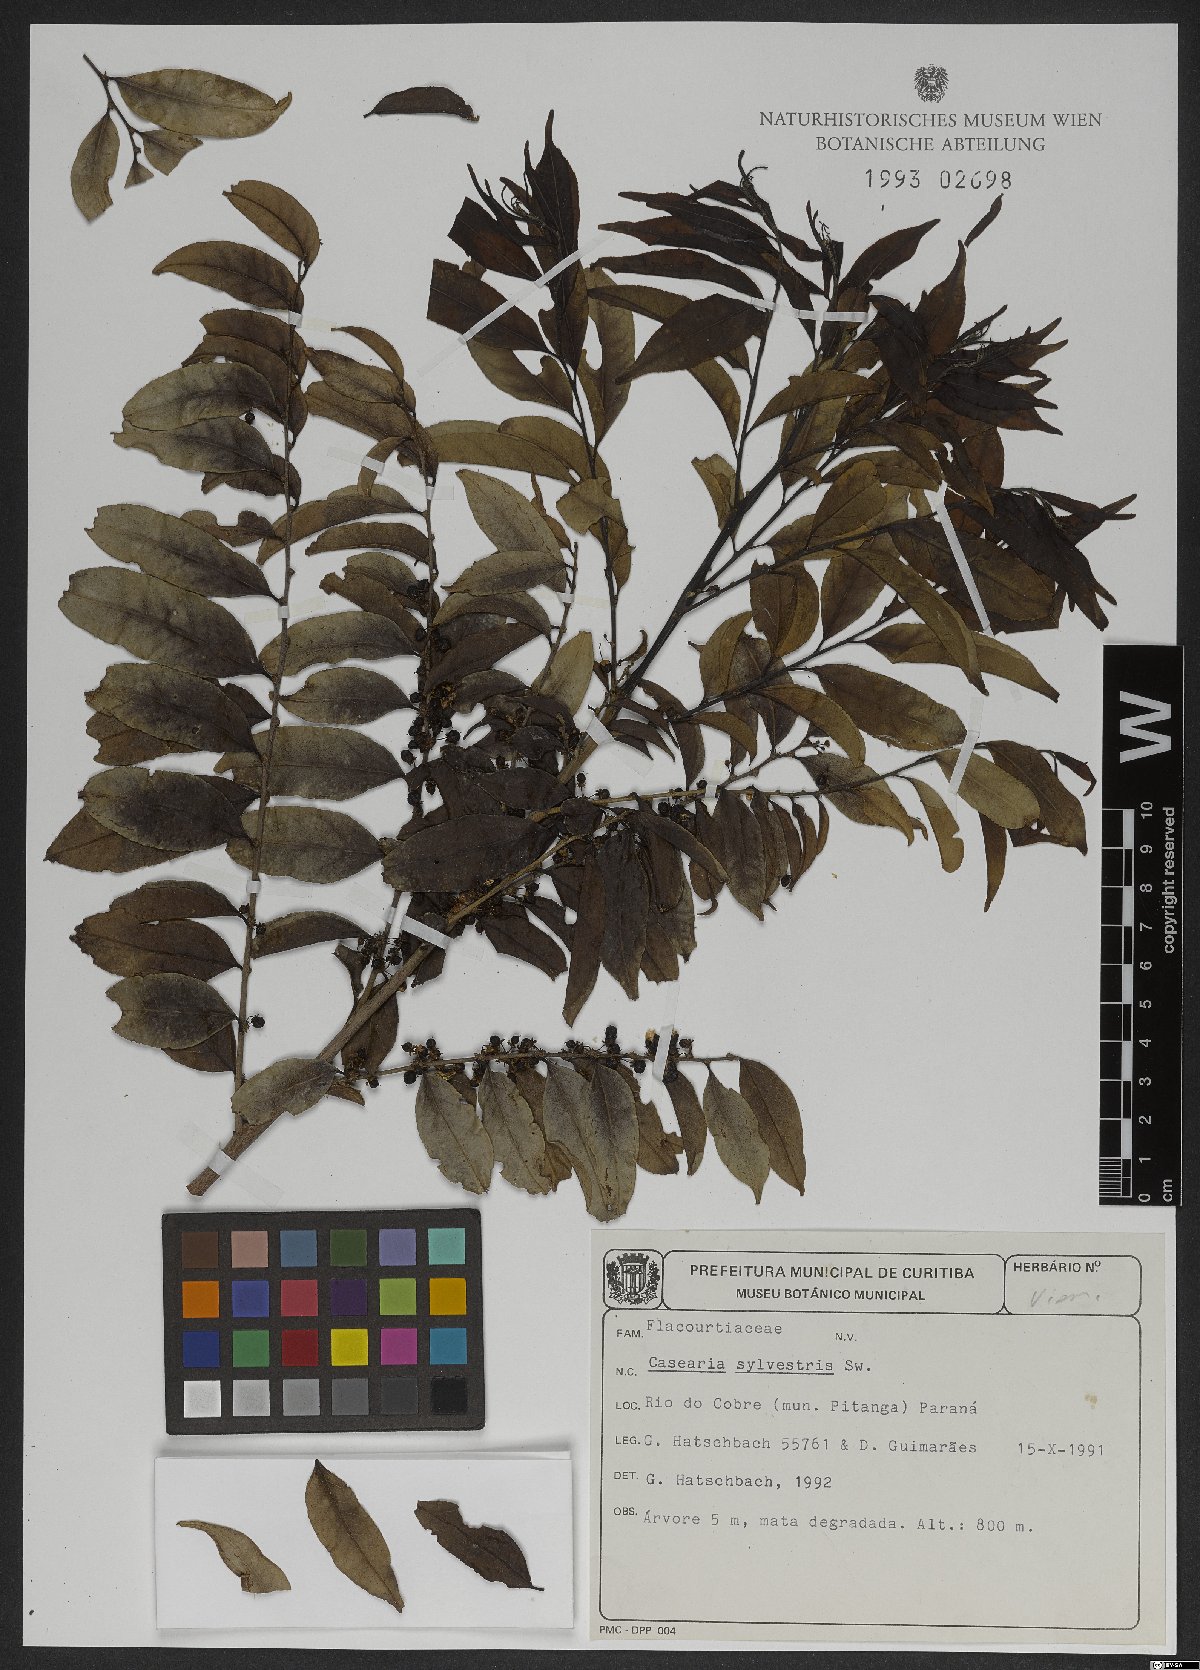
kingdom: Plantae
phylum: Tracheophyta
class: Magnoliopsida
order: Malpighiales
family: Salicaceae
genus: Casearia
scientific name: Casearia sylvestris
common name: Wild sage
